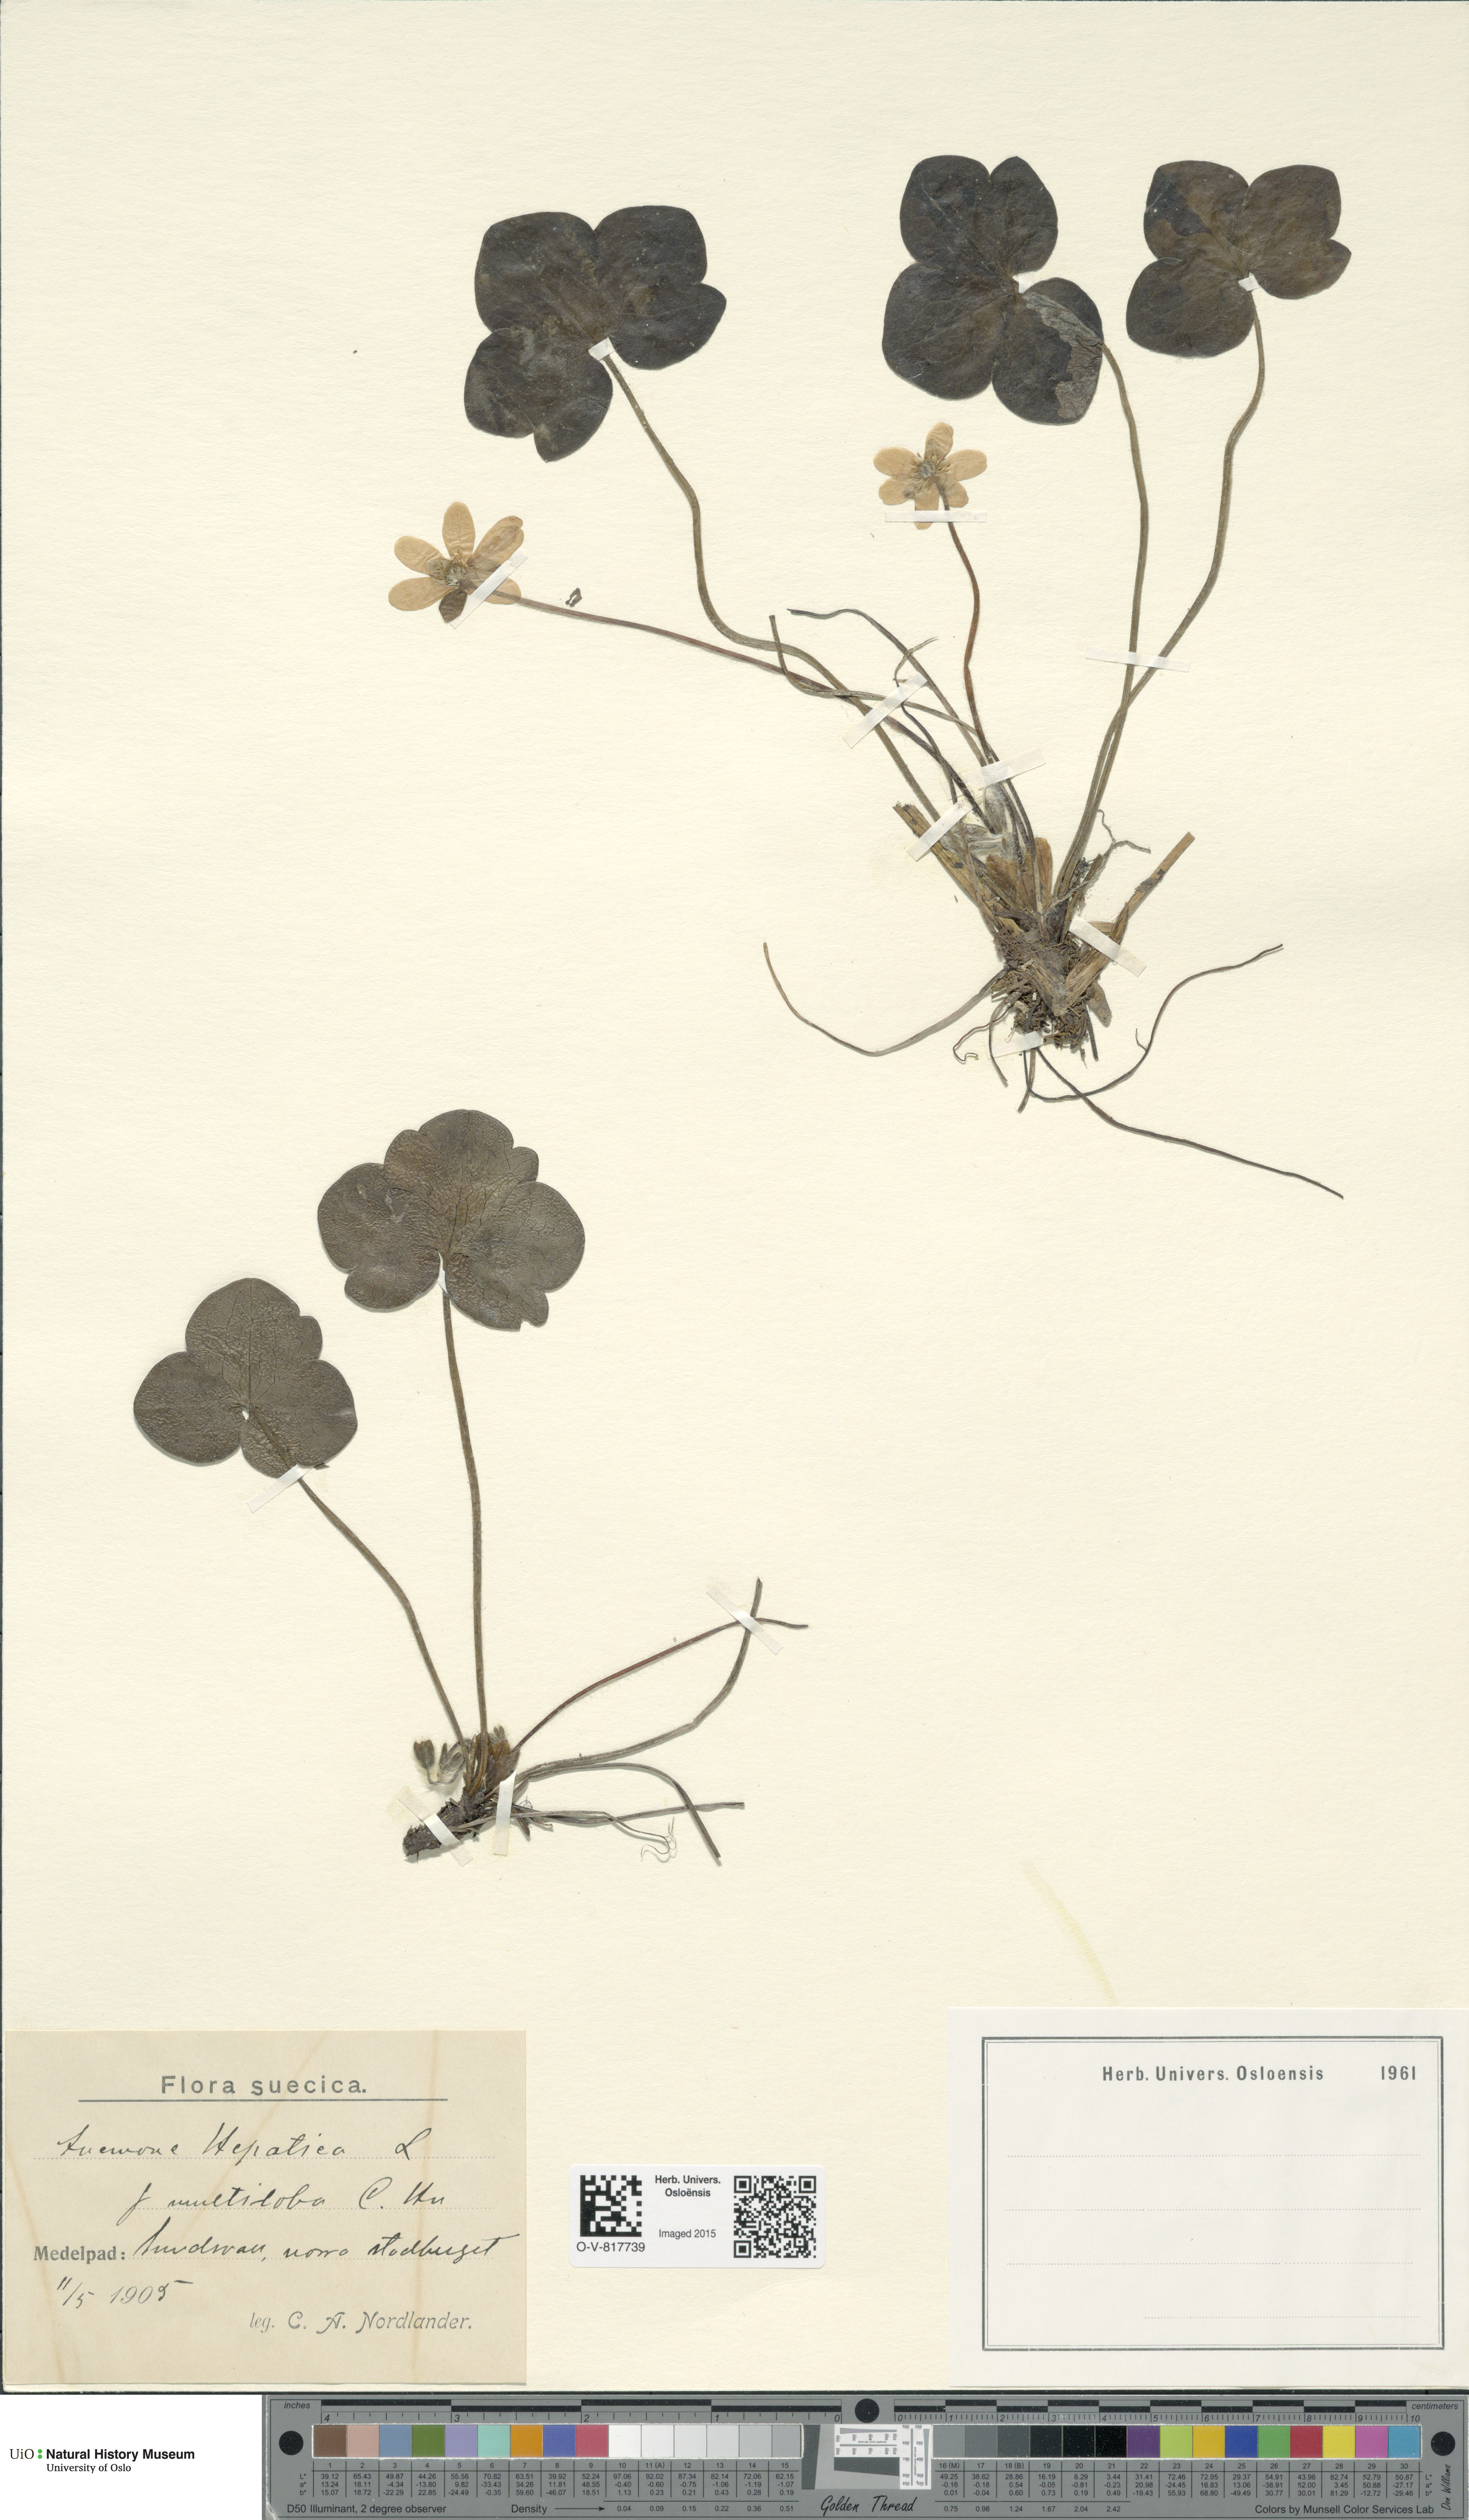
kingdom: Plantae
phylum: Tracheophyta
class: Magnoliopsida
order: Ranunculales
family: Ranunculaceae
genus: Hepatica
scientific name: Hepatica nobilis
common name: Liverleaf
